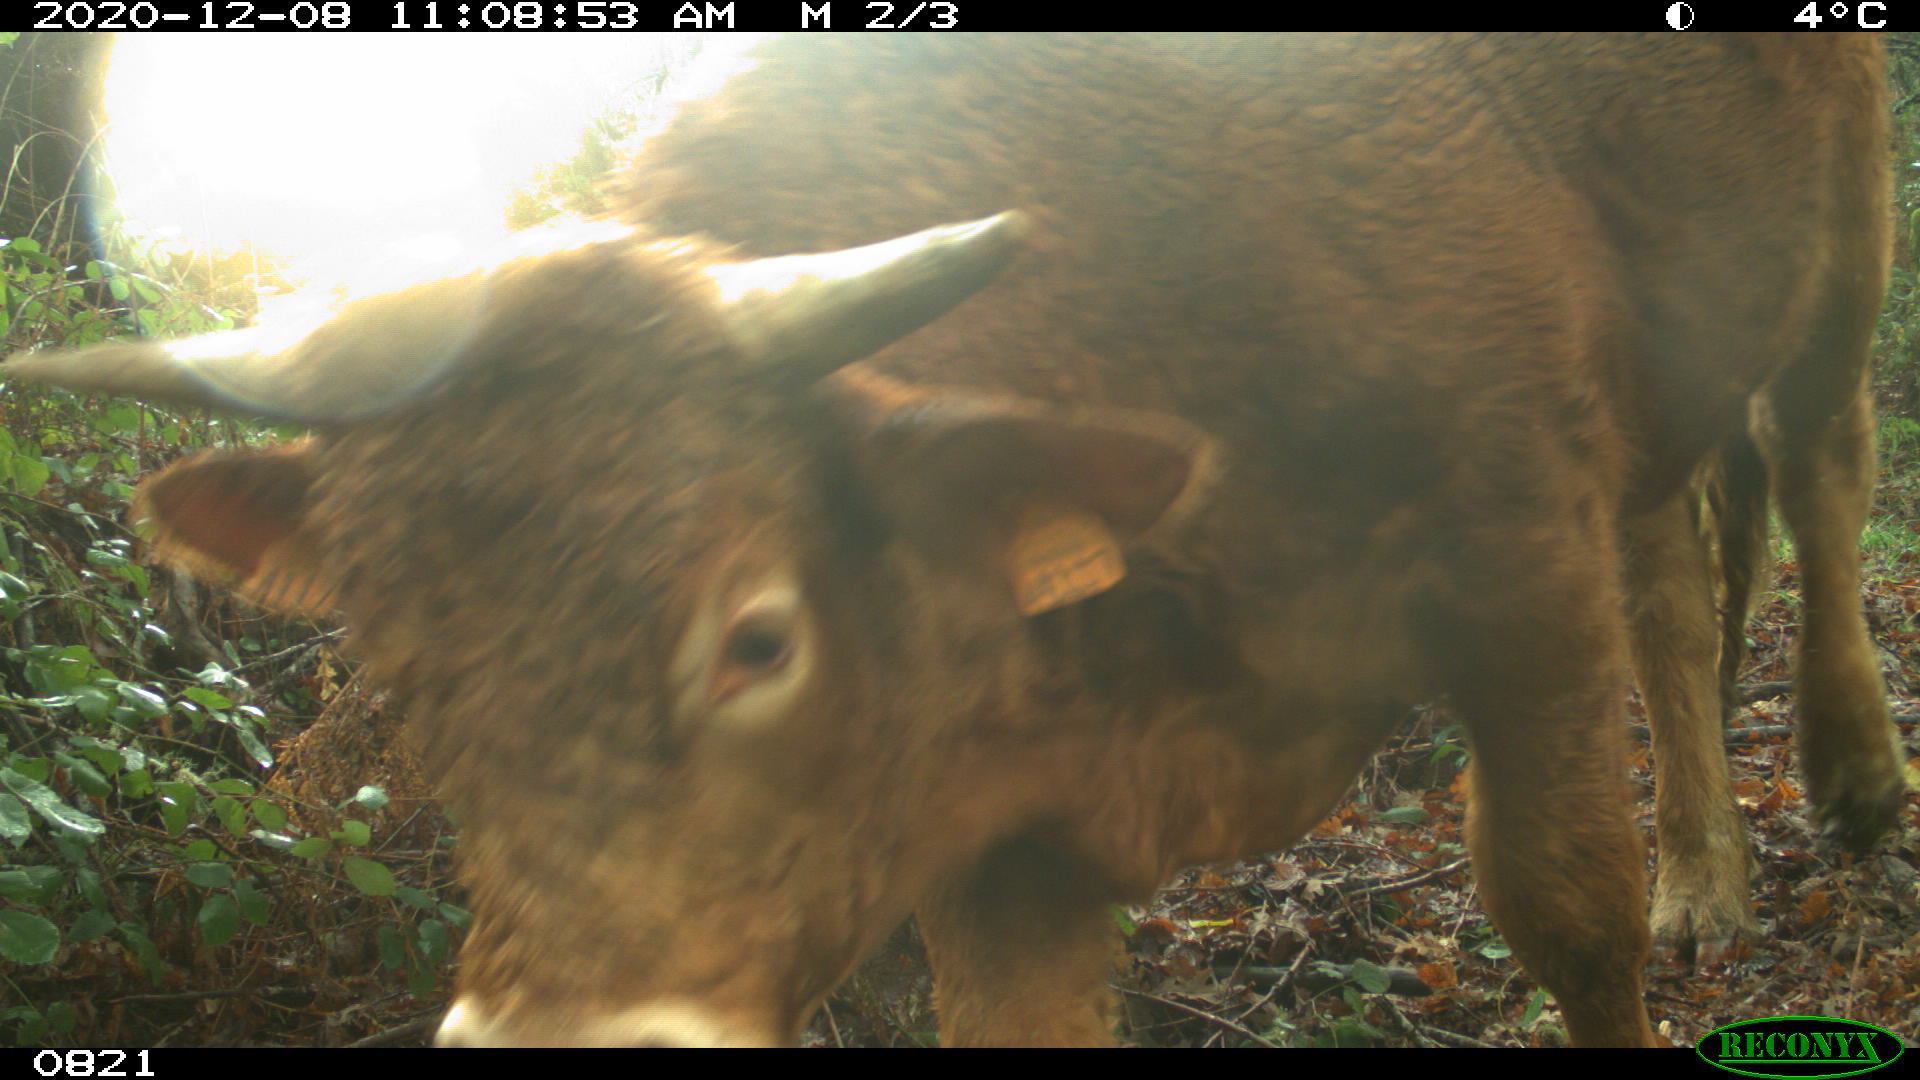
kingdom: Animalia
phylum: Chordata
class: Mammalia
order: Artiodactyla
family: Bovidae
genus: Bos
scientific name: Bos taurus
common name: Domesticated cattle
